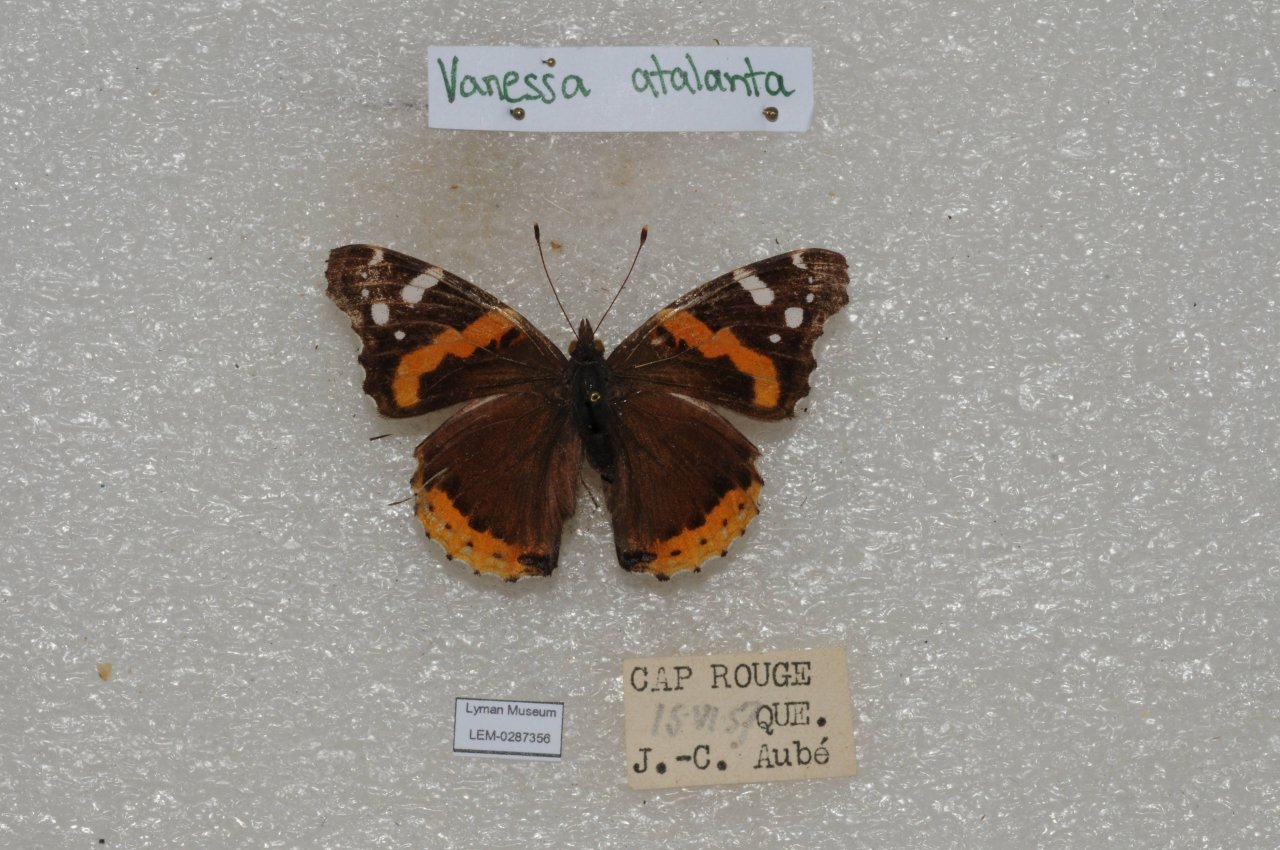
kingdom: Animalia
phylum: Arthropoda
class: Insecta
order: Lepidoptera
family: Nymphalidae
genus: Vanessa
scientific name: Vanessa atalanta
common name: Red Admiral
